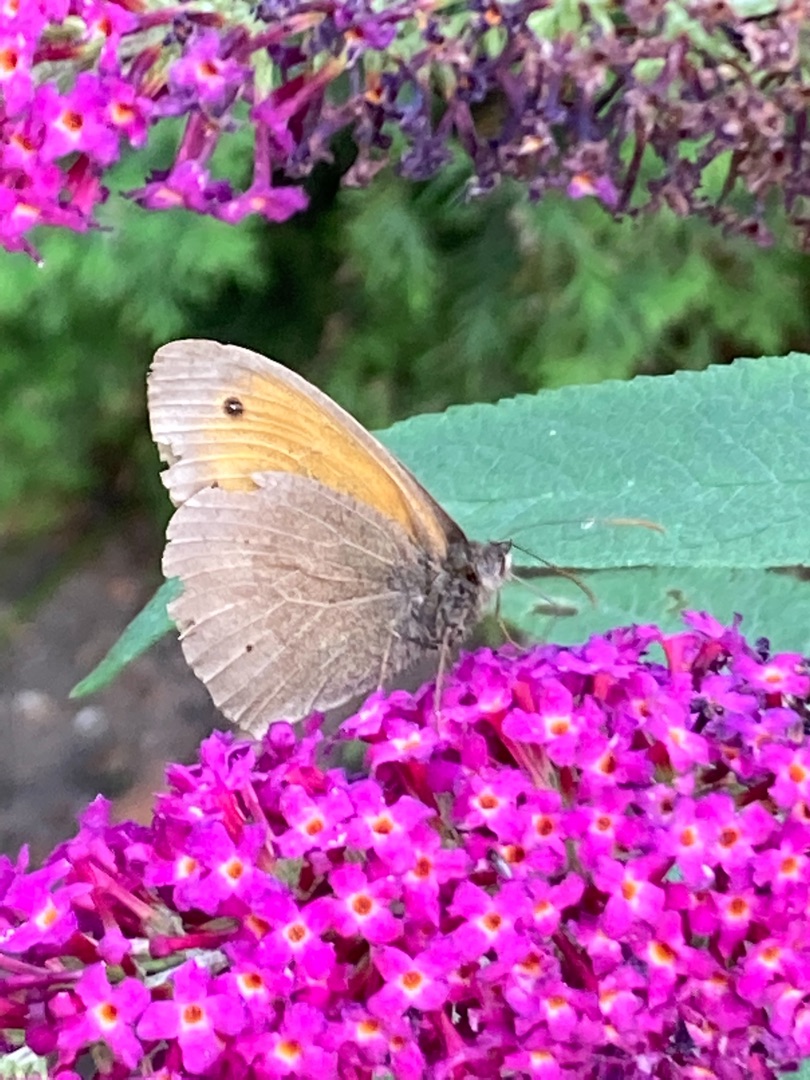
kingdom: Animalia
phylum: Arthropoda
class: Insecta
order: Lepidoptera
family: Nymphalidae
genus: Maniola
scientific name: Maniola jurtina
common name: Græsrandøje
